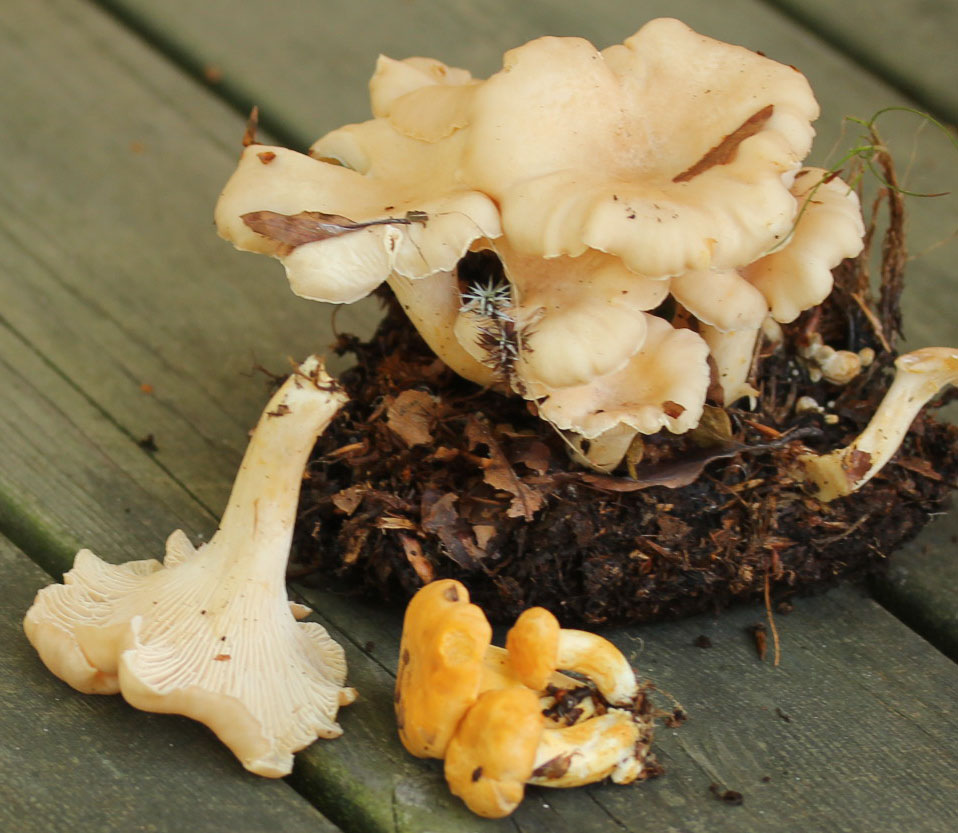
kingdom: Fungi
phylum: Basidiomycota
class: Agaricomycetes
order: Cantharellales
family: Hydnaceae
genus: Cantharellus
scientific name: Cantharellus pallens
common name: bleg kantarel
